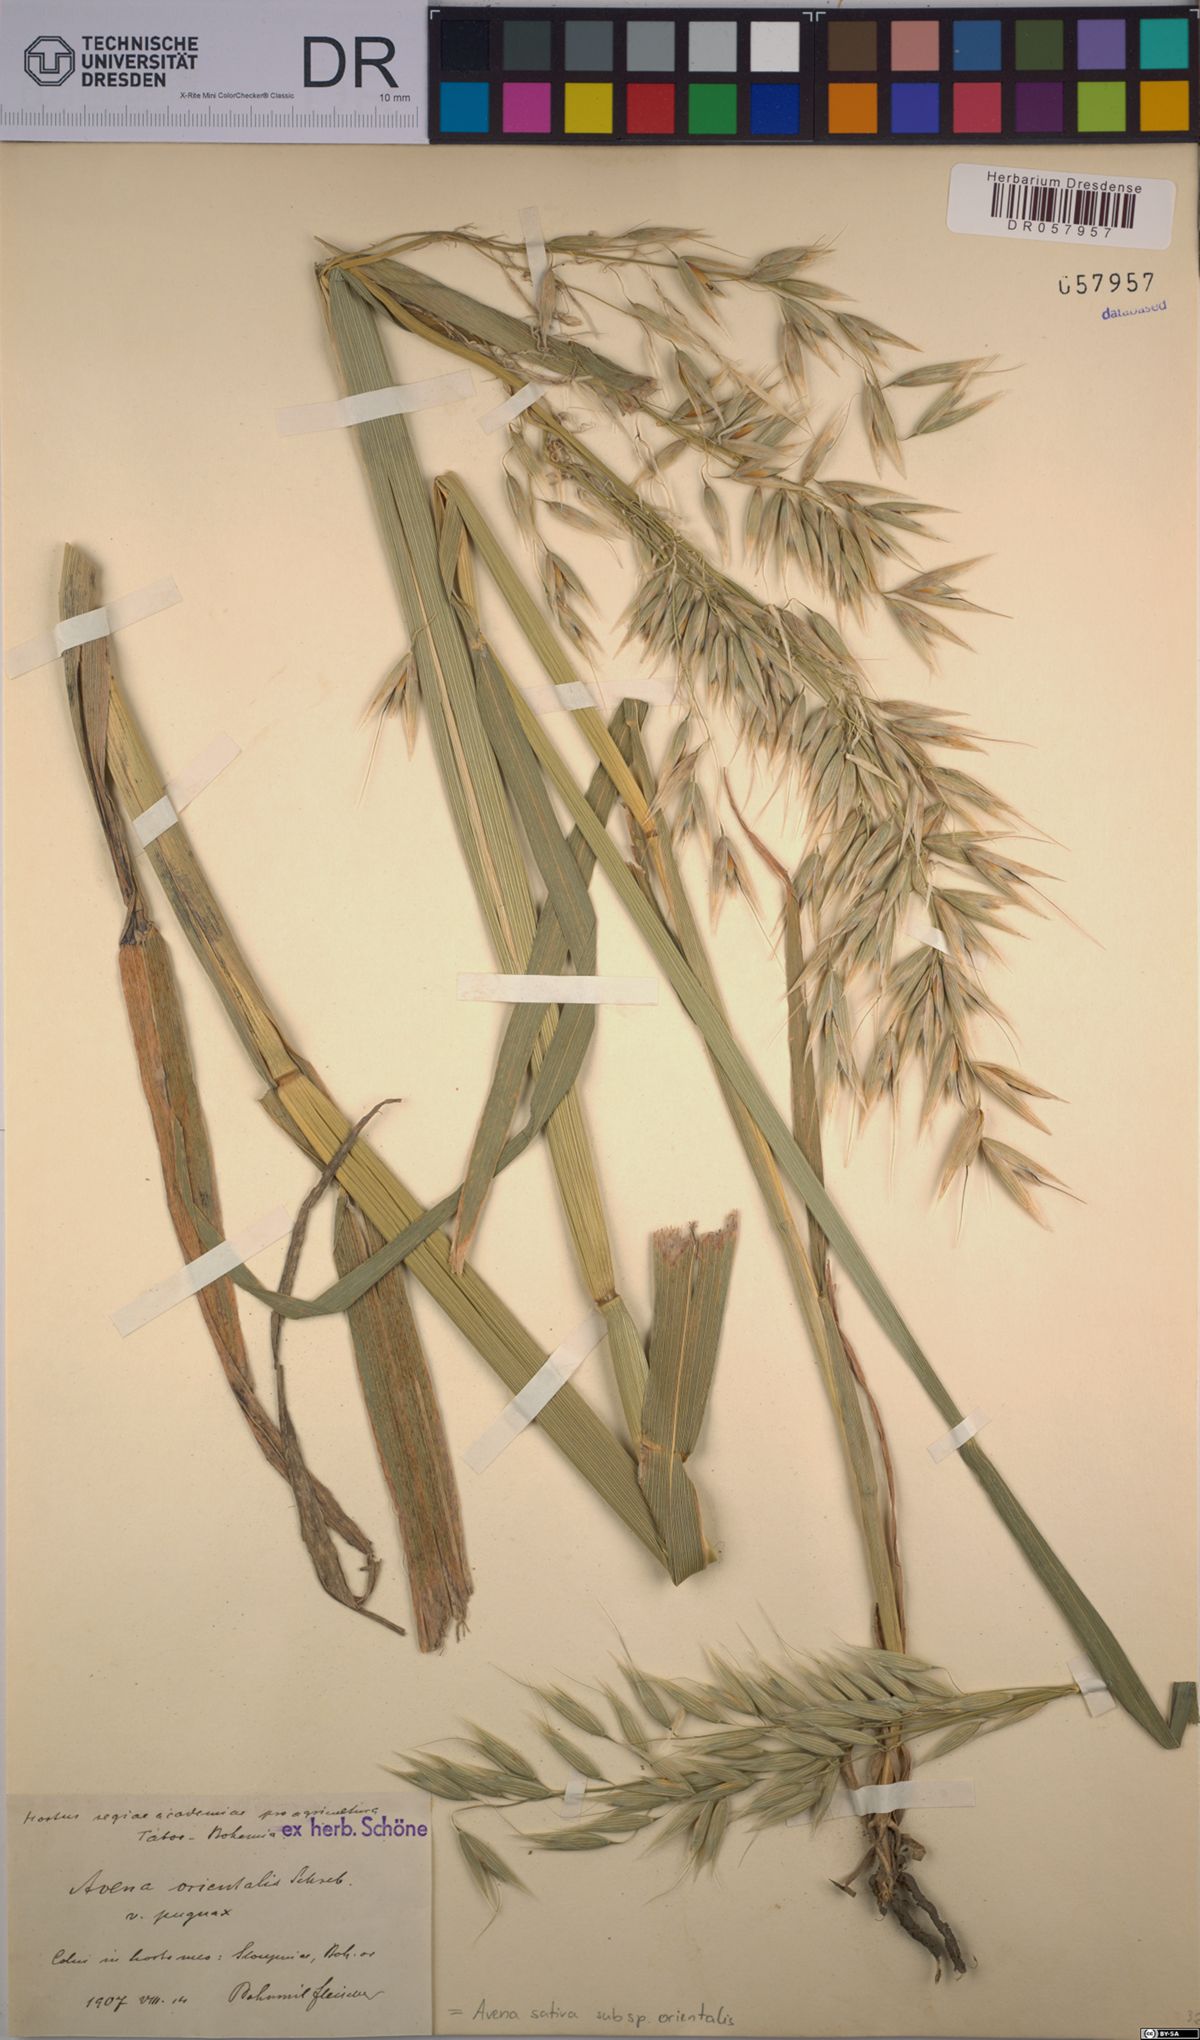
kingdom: Plantae
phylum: Tracheophyta
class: Liliopsida
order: Poales
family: Poaceae
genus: Avena
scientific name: Avena sativa
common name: Oat
